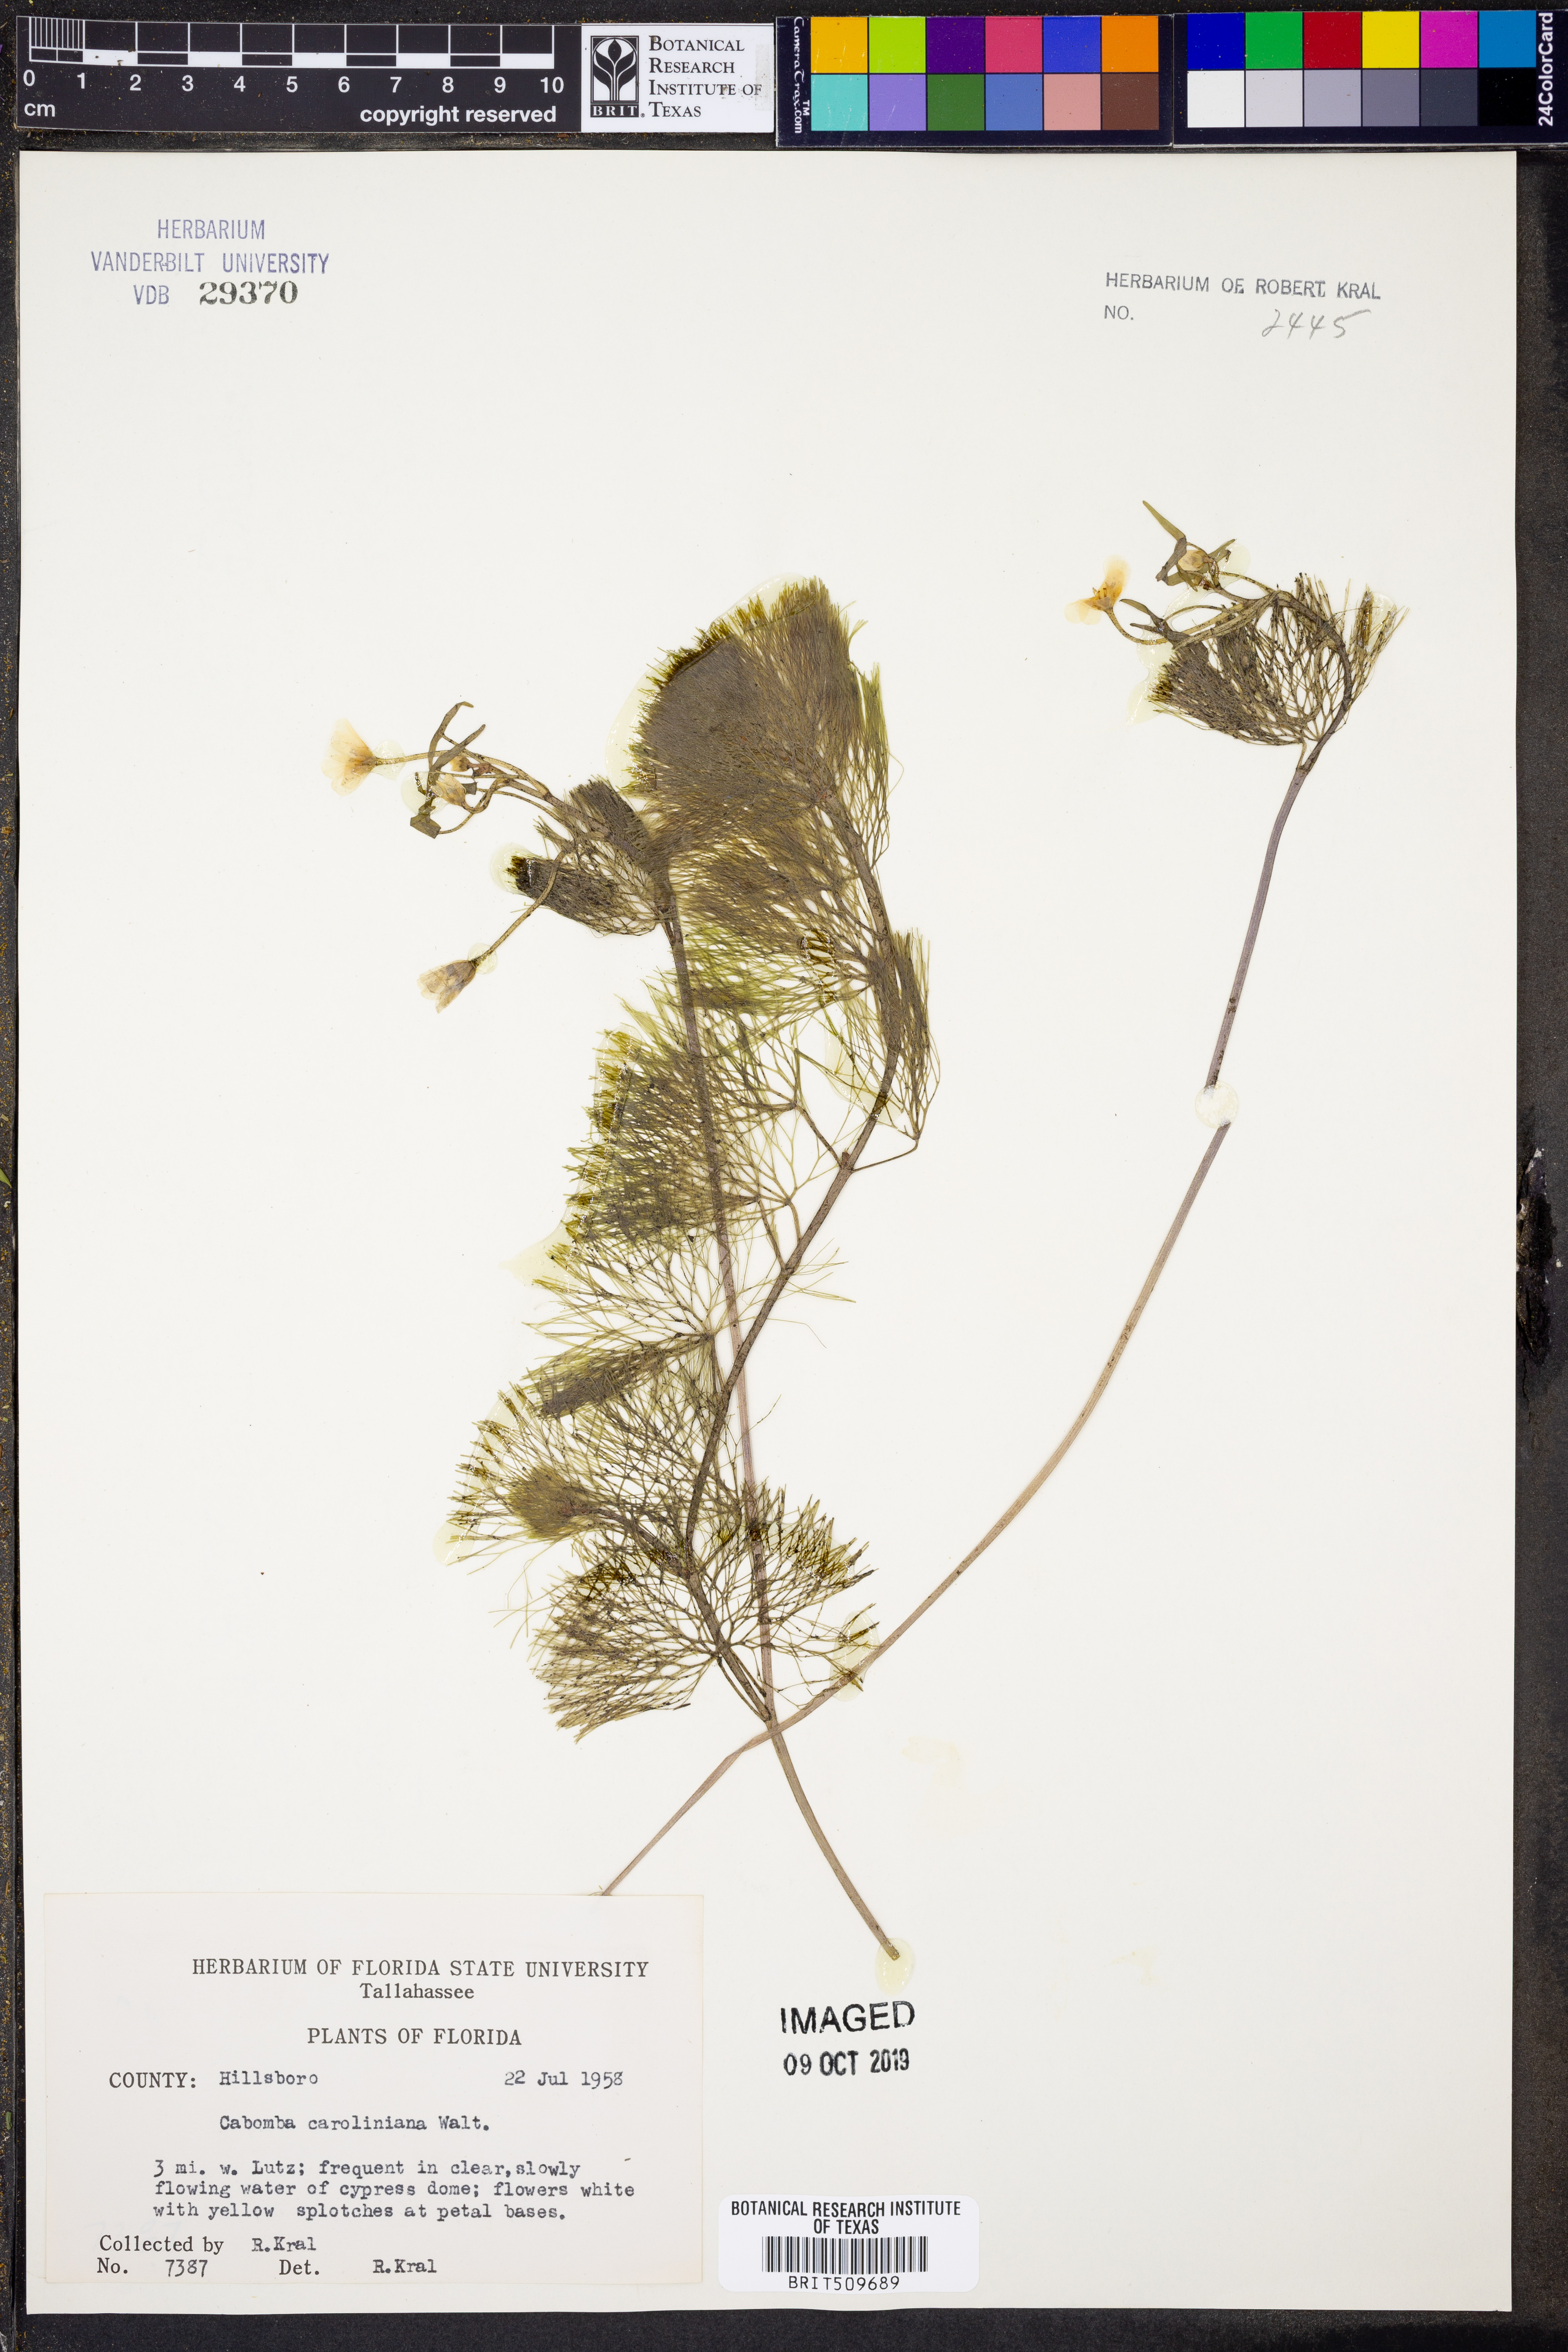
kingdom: Plantae
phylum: Tracheophyta
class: Magnoliopsida
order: Nymphaeales
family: Cabombaceae
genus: Cabomba
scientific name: Cabomba caroliniana
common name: Fanwort
